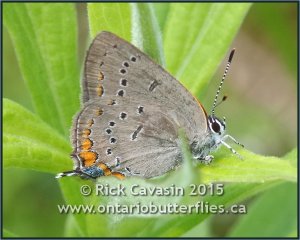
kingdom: Animalia
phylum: Arthropoda
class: Insecta
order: Lepidoptera
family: Lycaenidae
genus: Strymon
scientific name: Strymon acadica
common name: Acadian Hairstreak
